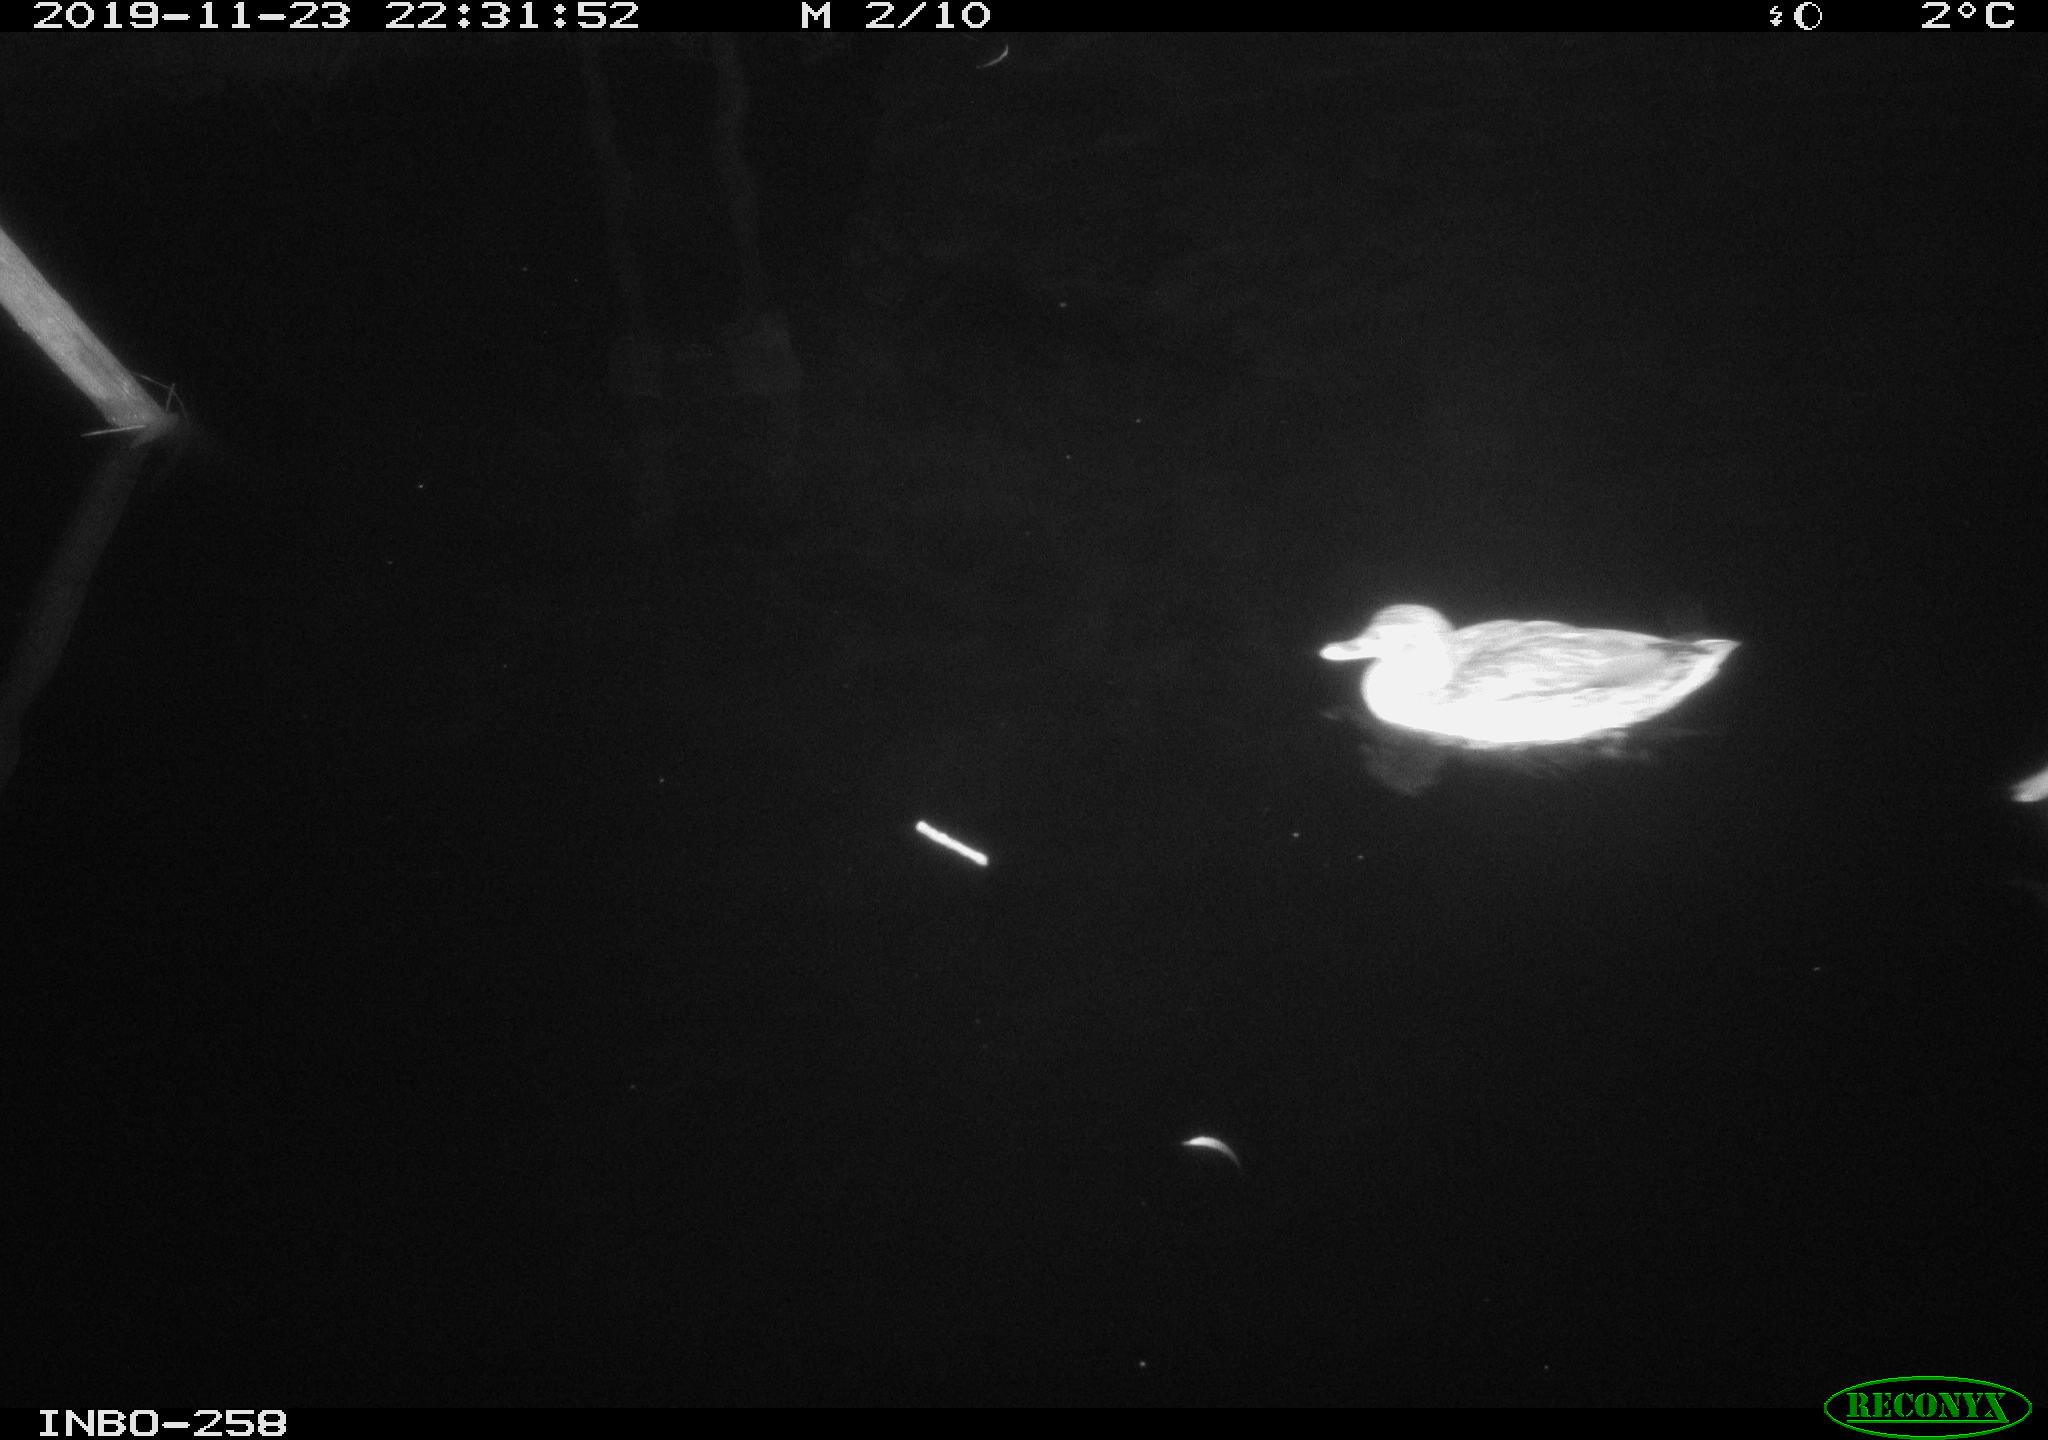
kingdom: Animalia
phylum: Chordata
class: Aves
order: Anseriformes
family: Anatidae
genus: Anas
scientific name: Anas platyrhynchos
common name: Mallard
